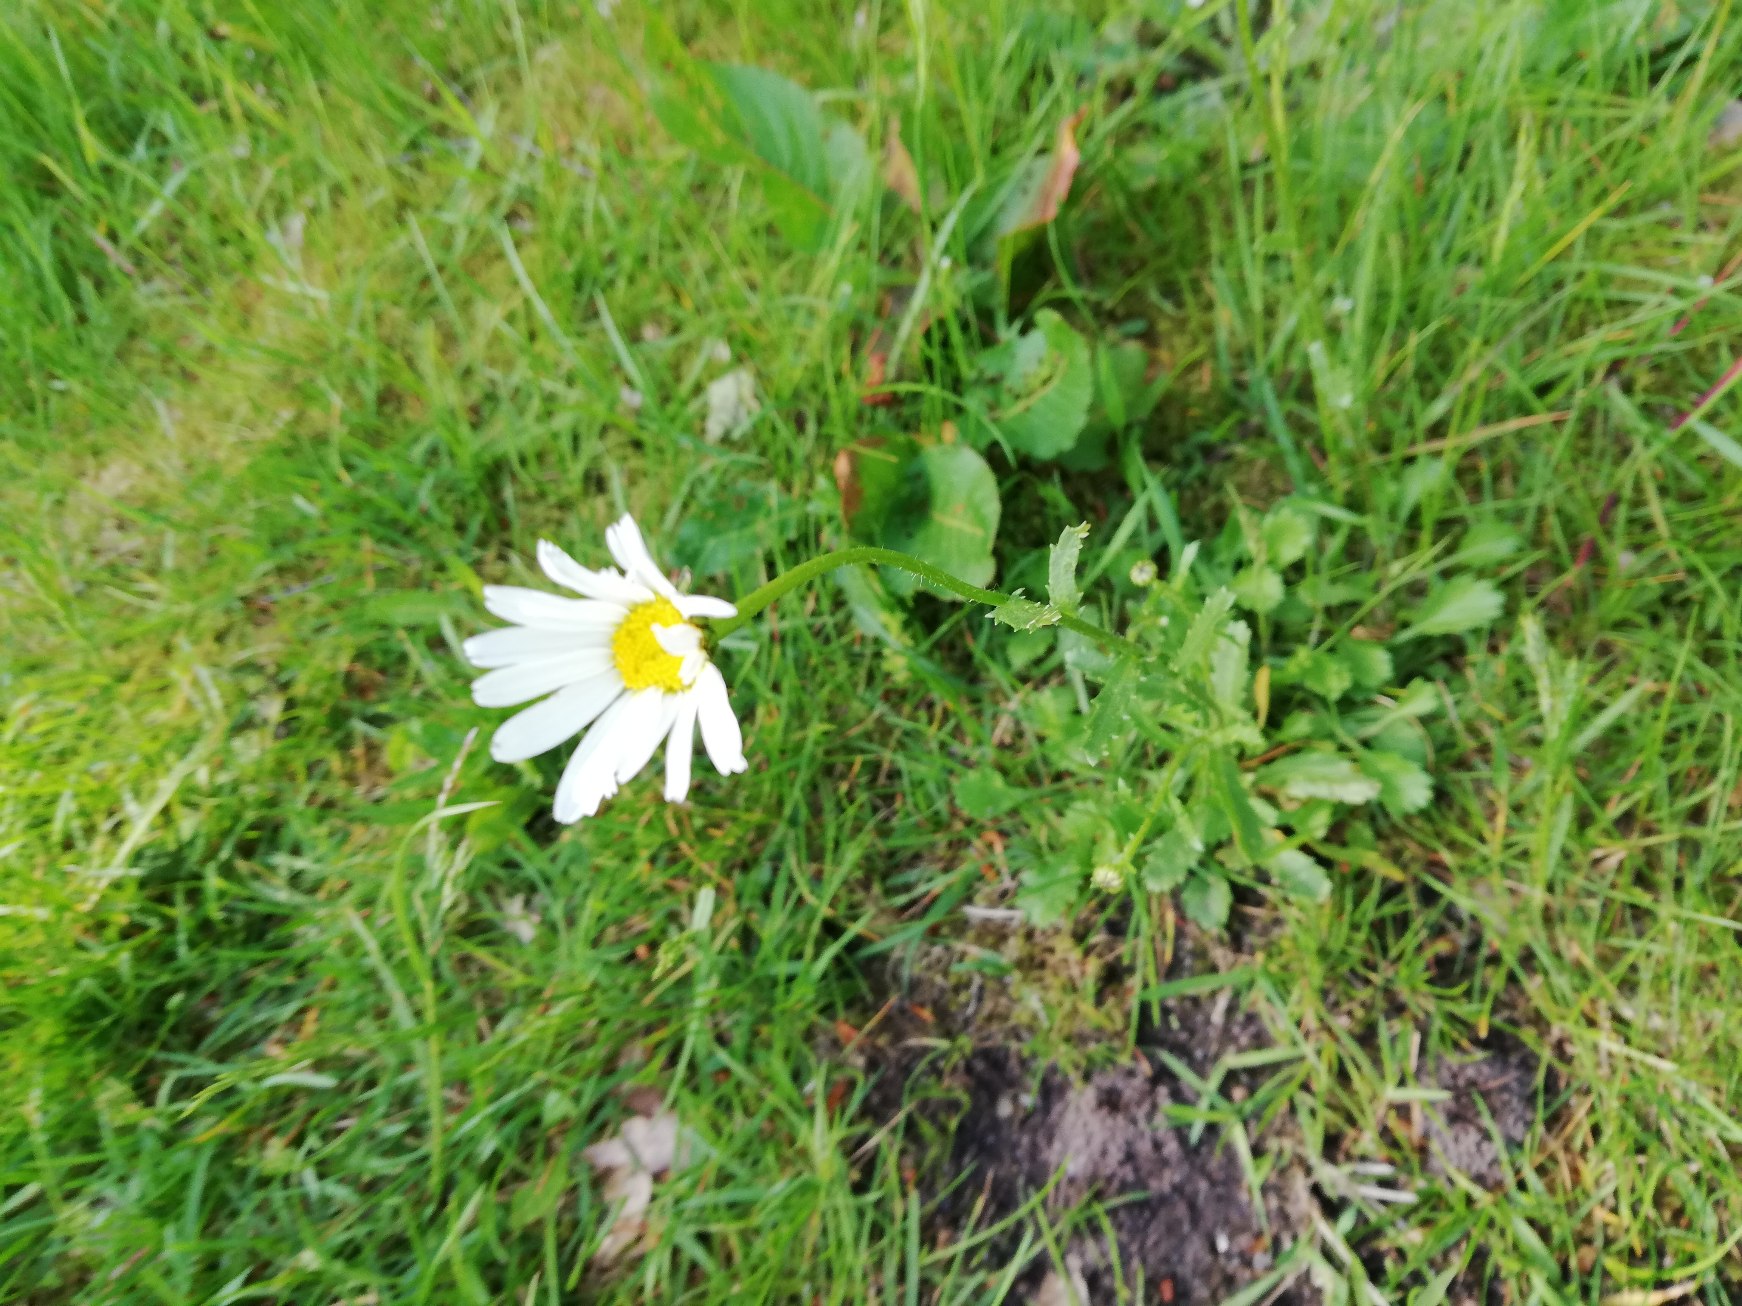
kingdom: Plantae
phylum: Tracheophyta
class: Magnoliopsida
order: Asterales
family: Asteraceae
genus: Leucanthemum
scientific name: Leucanthemum vulgare
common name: Hvid okseøje
